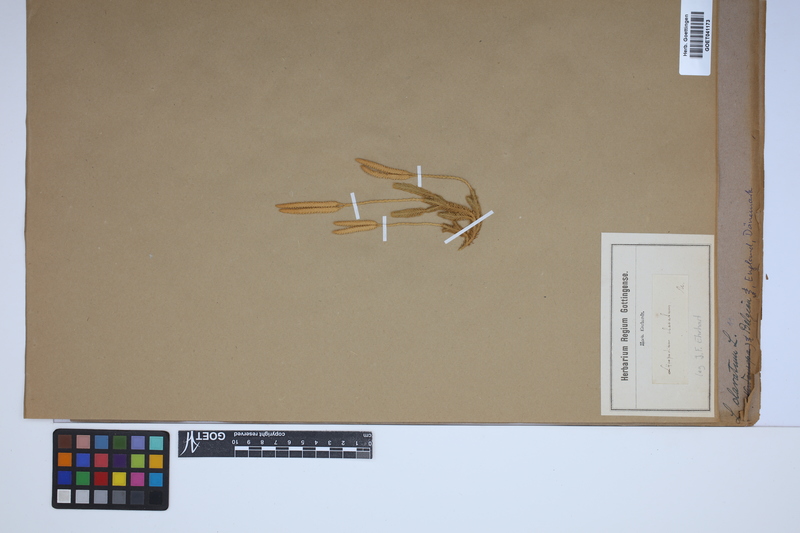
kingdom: Plantae
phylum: Tracheophyta
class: Lycopodiopsida
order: Lycopodiales
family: Lycopodiaceae
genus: Lycopodium
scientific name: Lycopodium clavatum
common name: Stag's-horn clubmoss
